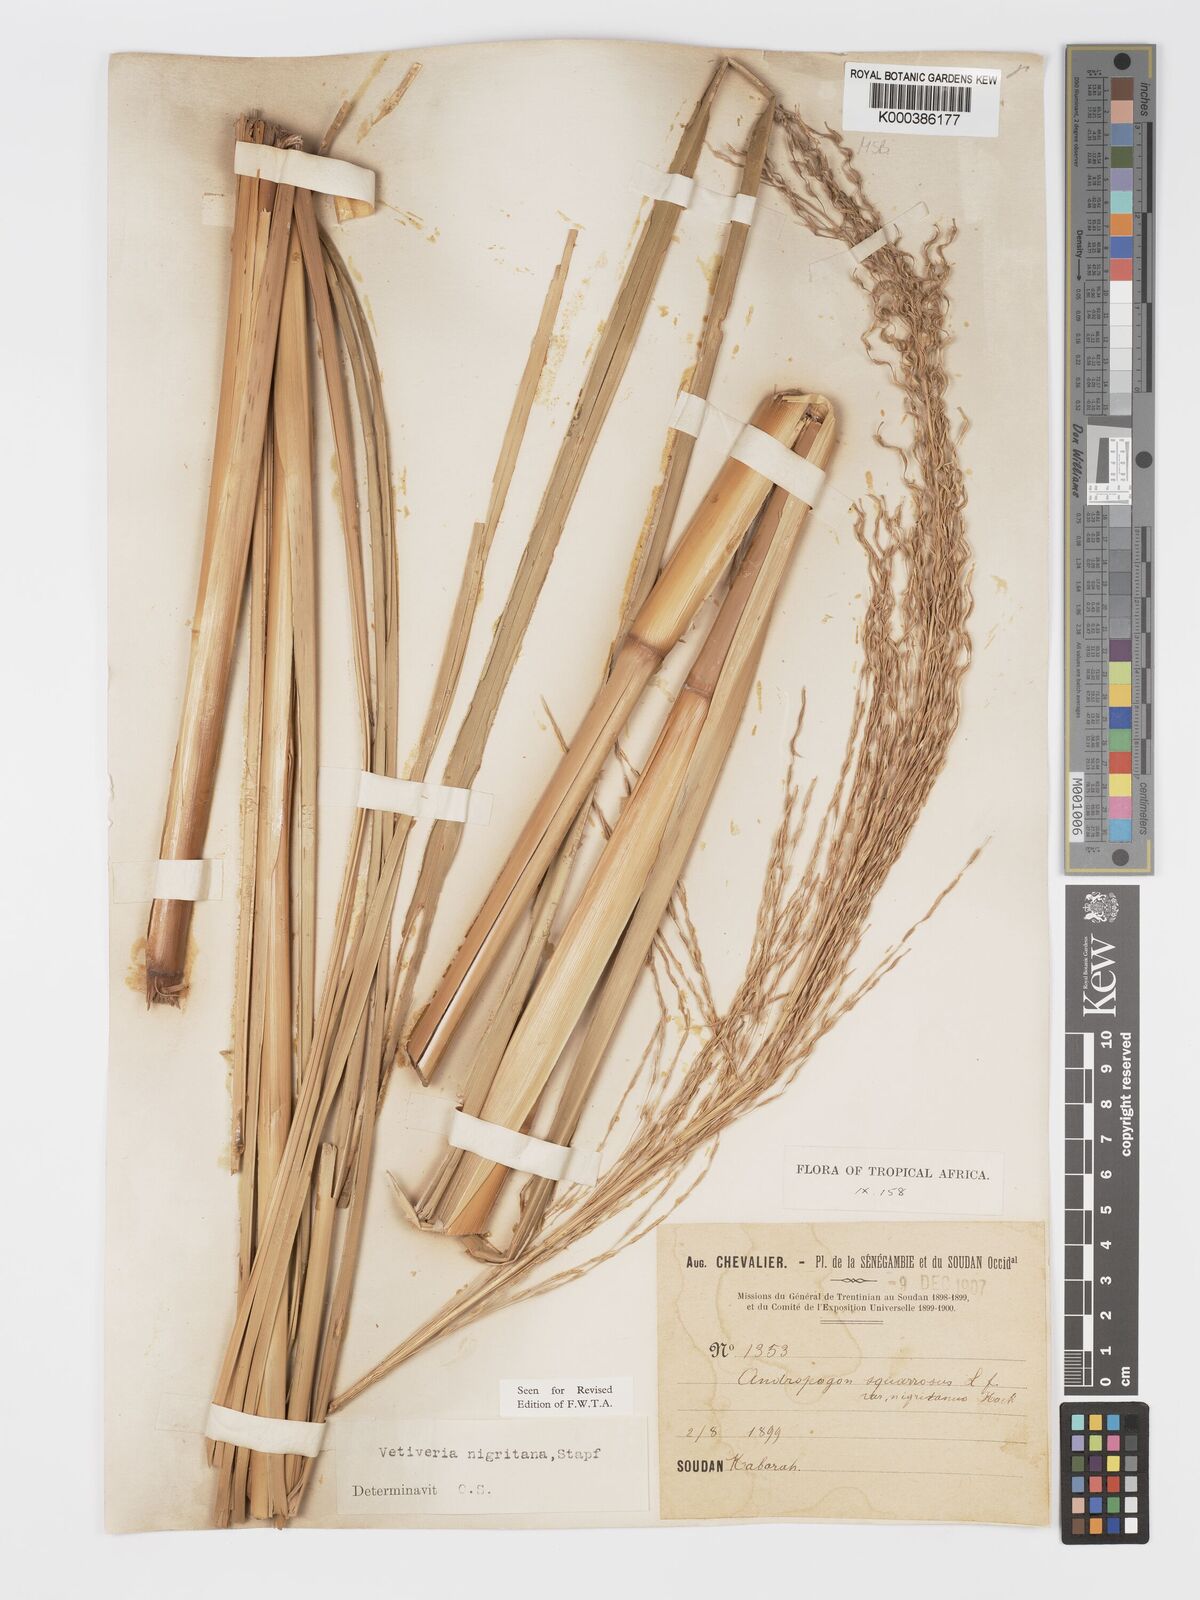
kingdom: Plantae
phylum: Tracheophyta
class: Liliopsida
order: Poales
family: Poaceae
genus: Chrysopogon
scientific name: Chrysopogon nigritanus
